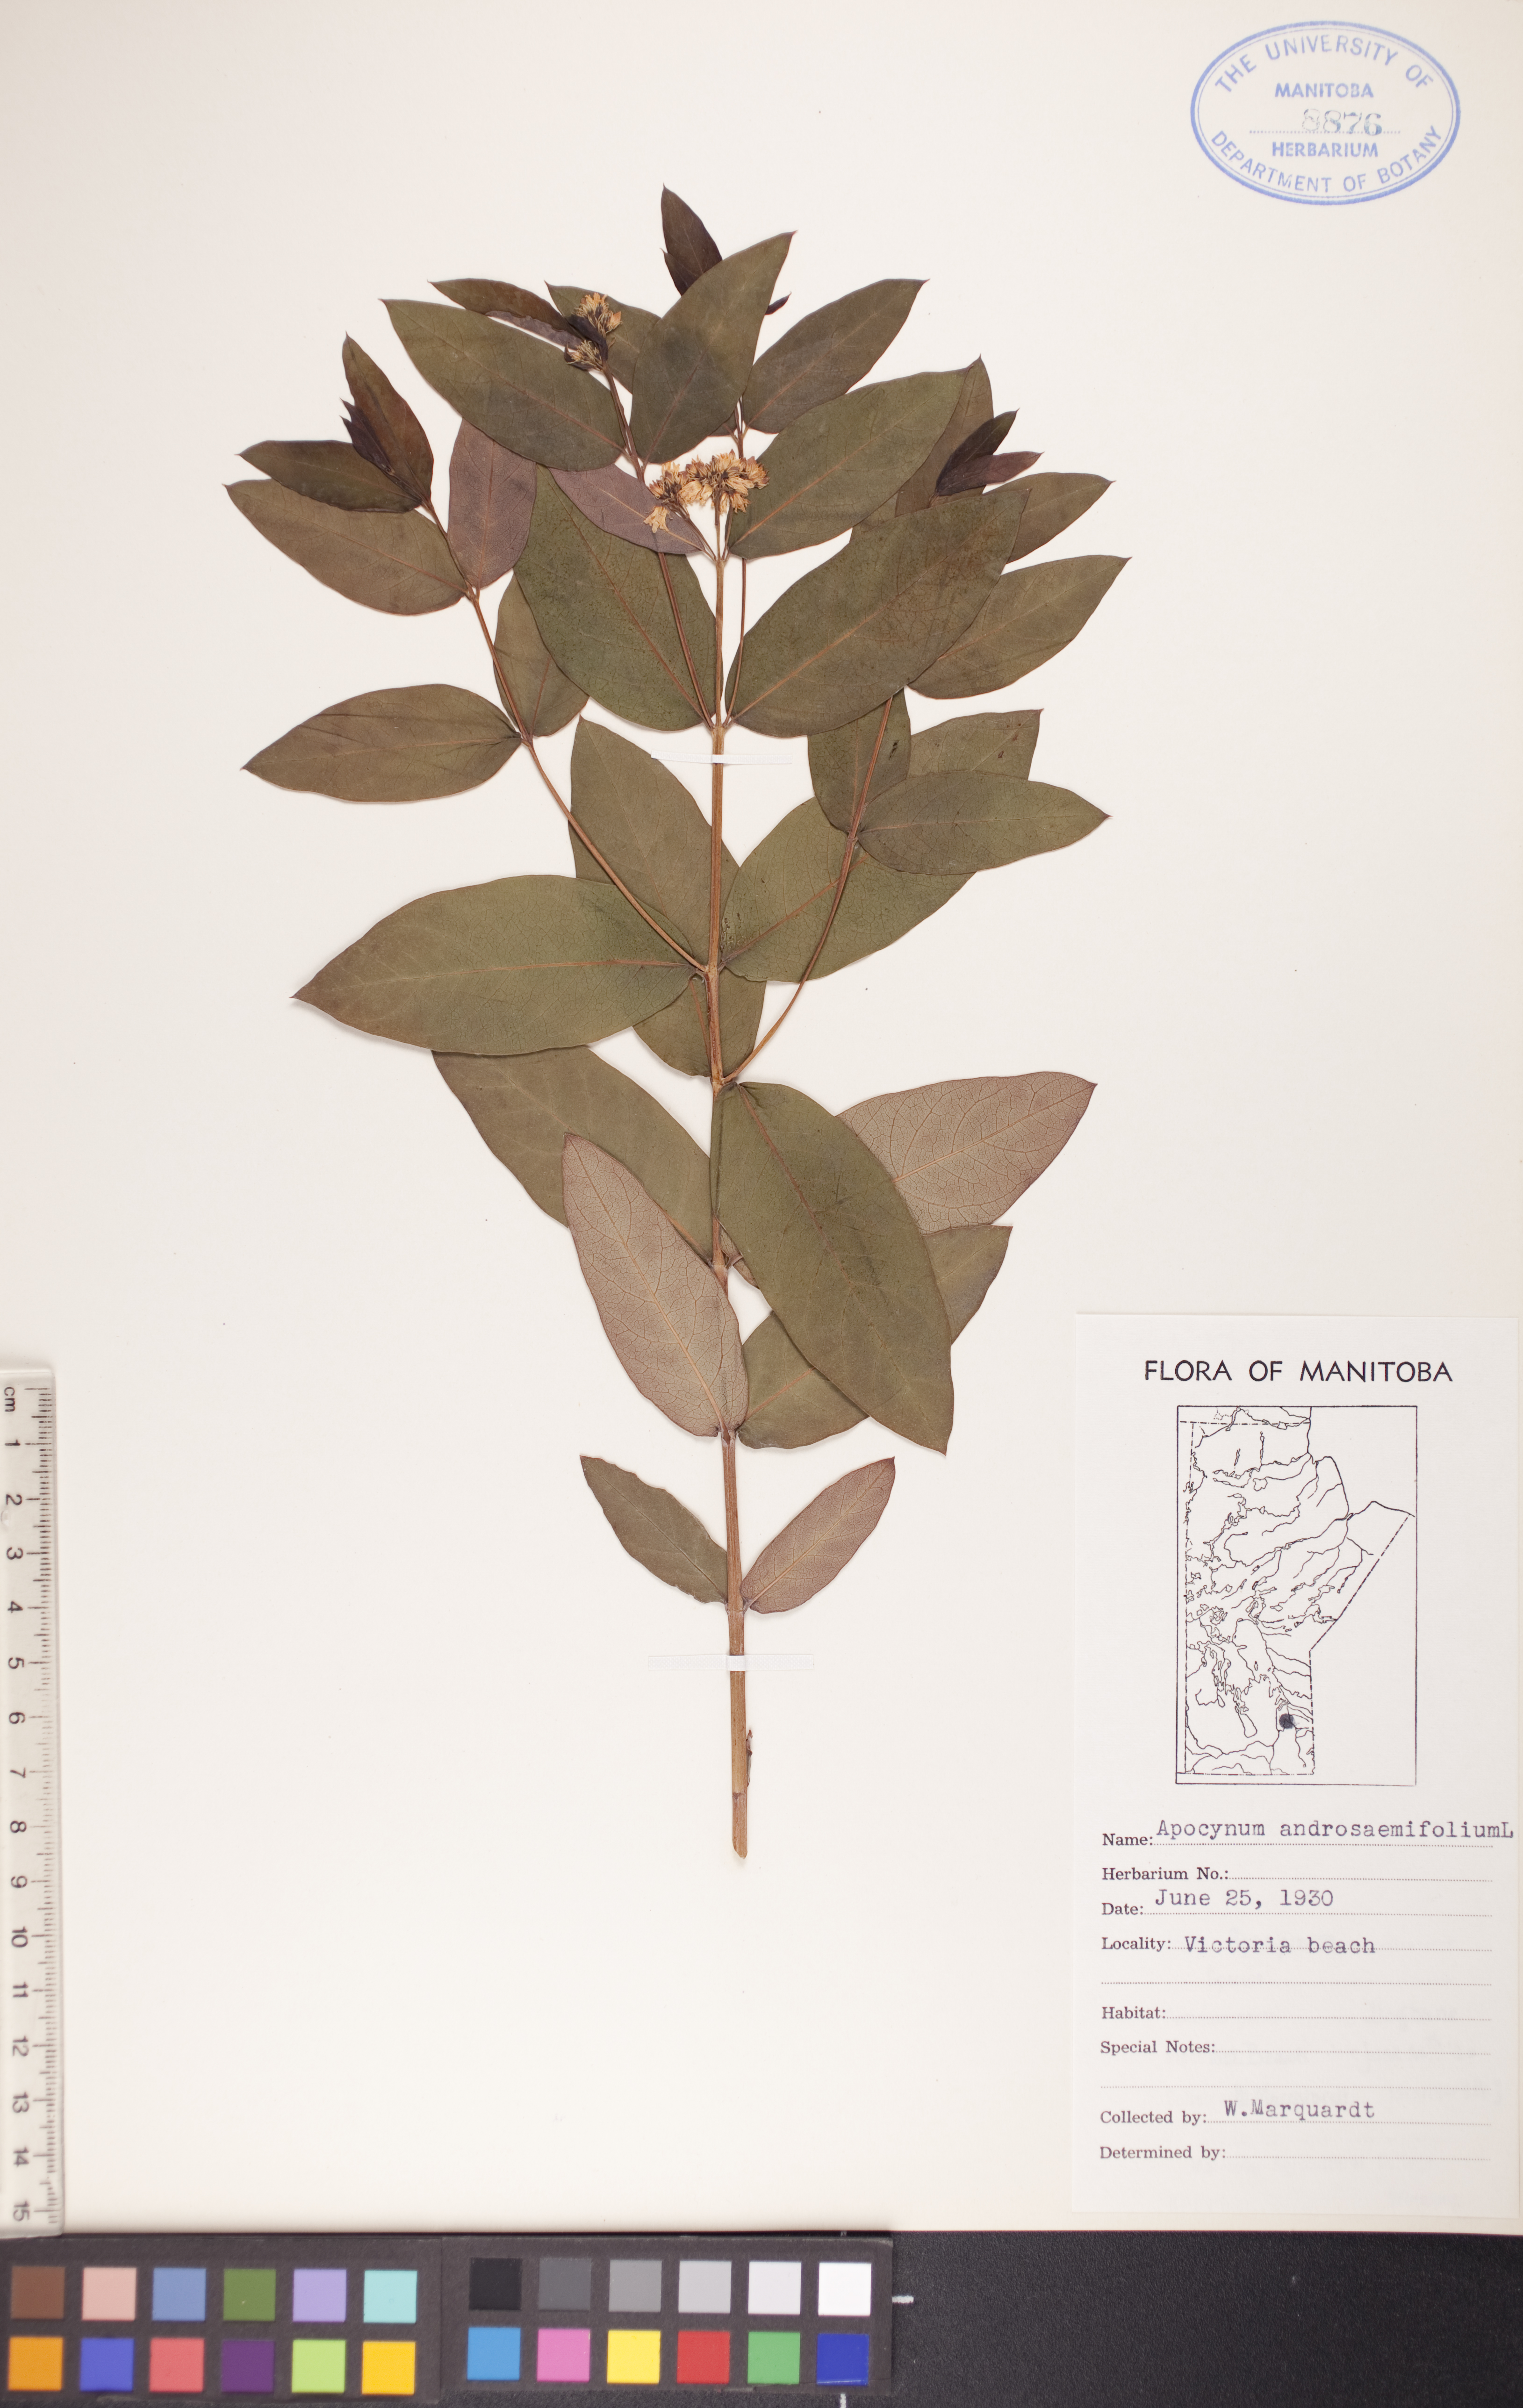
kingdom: Plantae
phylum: Tracheophyta
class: Magnoliopsida
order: Gentianales
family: Apocynaceae
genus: Apocynum
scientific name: Apocynum androsaemifolium
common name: Spreading dogbane
